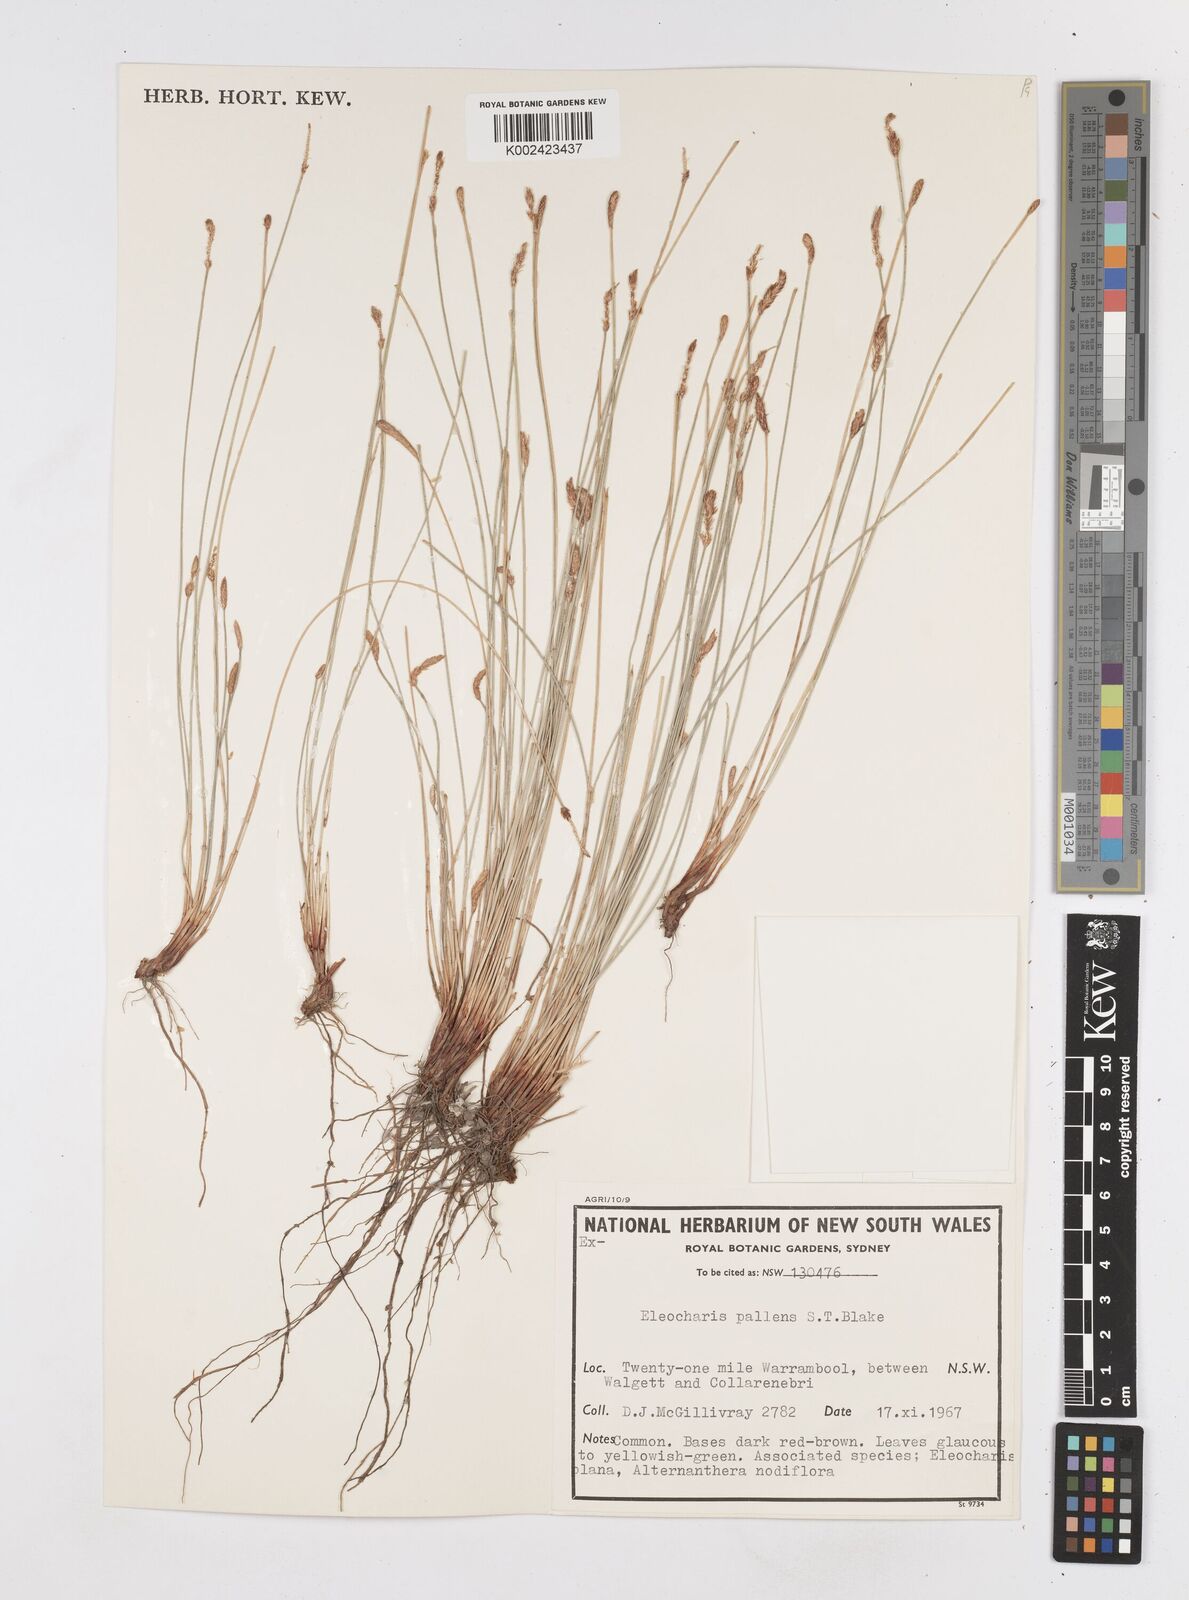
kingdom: Plantae
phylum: Tracheophyta
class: Liliopsida
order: Poales
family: Cyperaceae
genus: Eleocharis
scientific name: Eleocharis acuta
